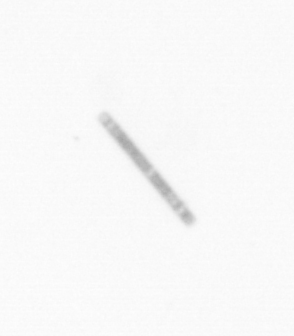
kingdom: Chromista
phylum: Ochrophyta
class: Bacillariophyceae
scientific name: Bacillariophyceae
